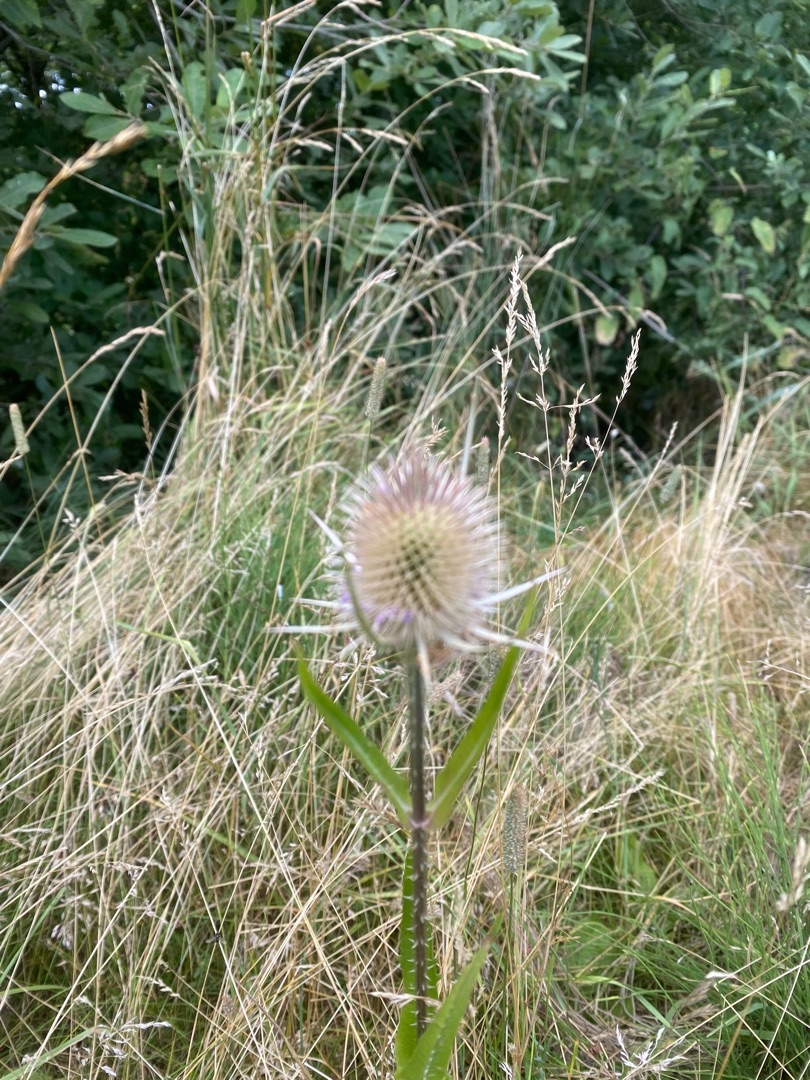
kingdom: Plantae
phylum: Tracheophyta
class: Magnoliopsida
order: Dipsacales
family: Caprifoliaceae
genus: Dipsacus
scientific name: Dipsacus fullonum
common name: Gærde-kartebolle
